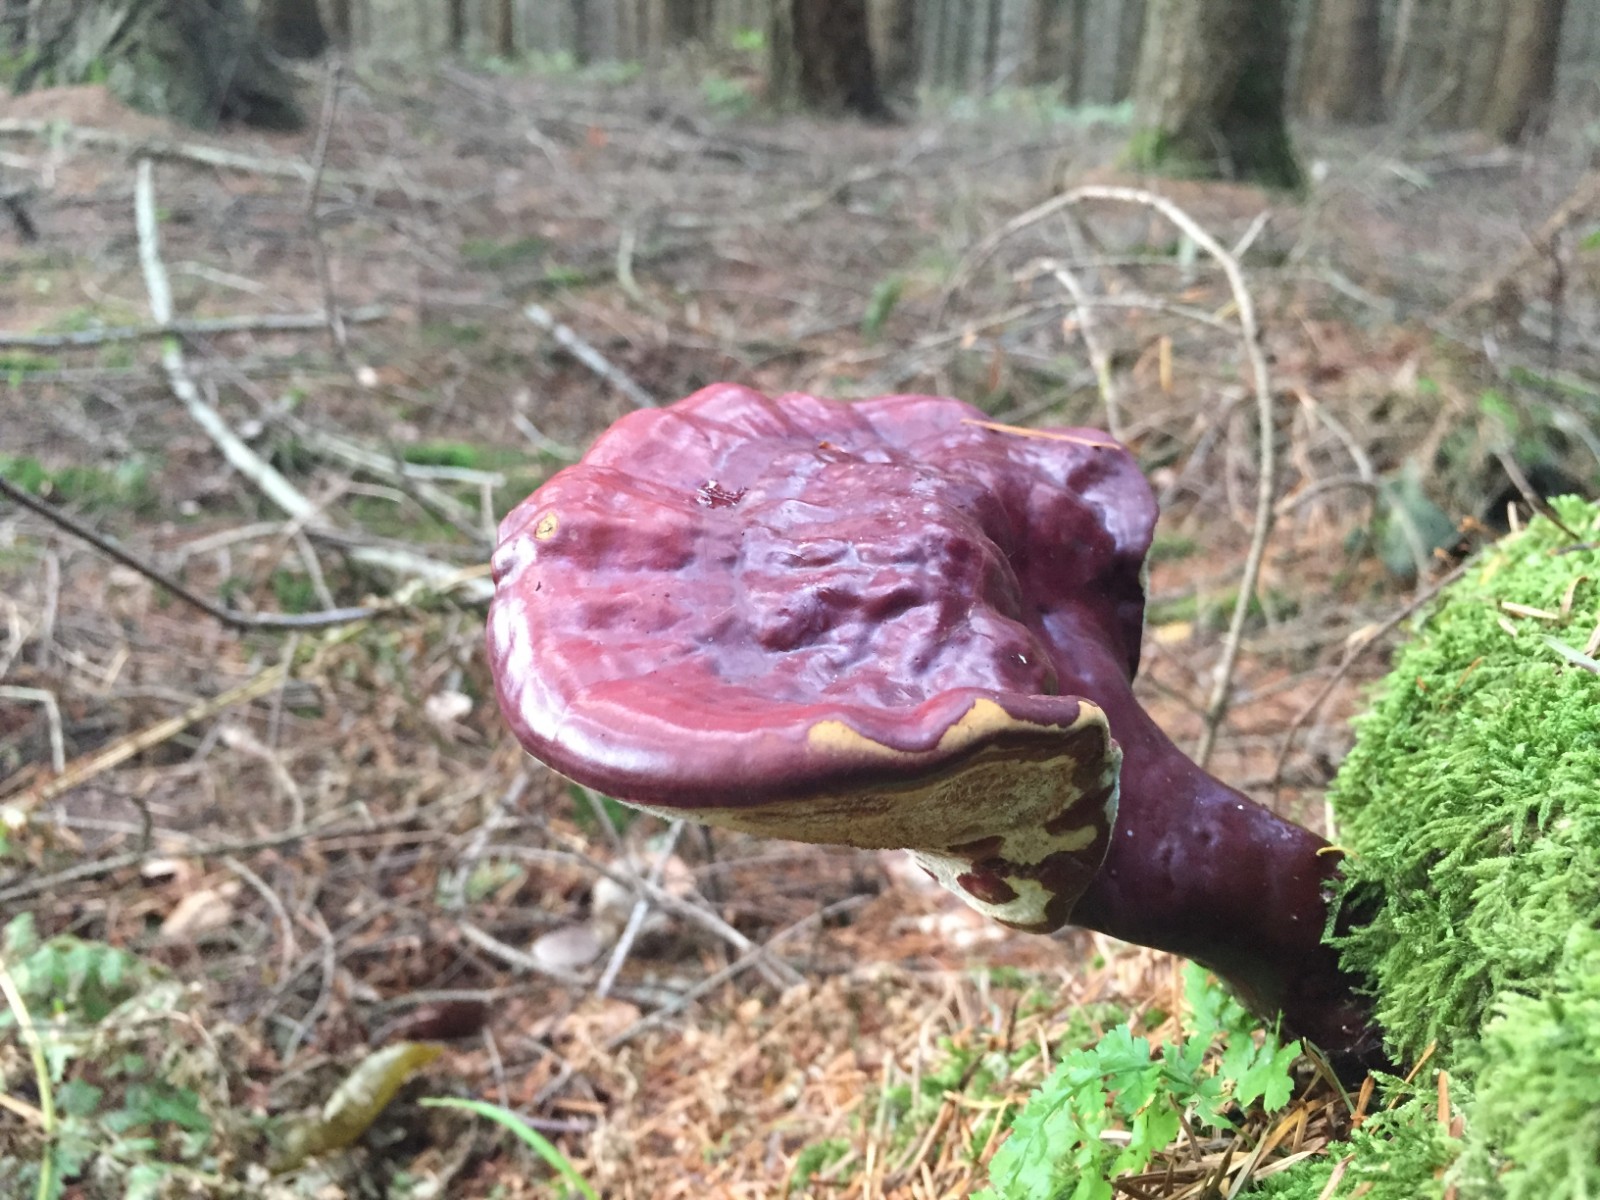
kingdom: Fungi
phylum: Basidiomycota
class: Agaricomycetes
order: Polyporales
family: Polyporaceae
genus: Ganoderma
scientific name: Ganoderma lucidum
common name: skinnende lakporesvamp
